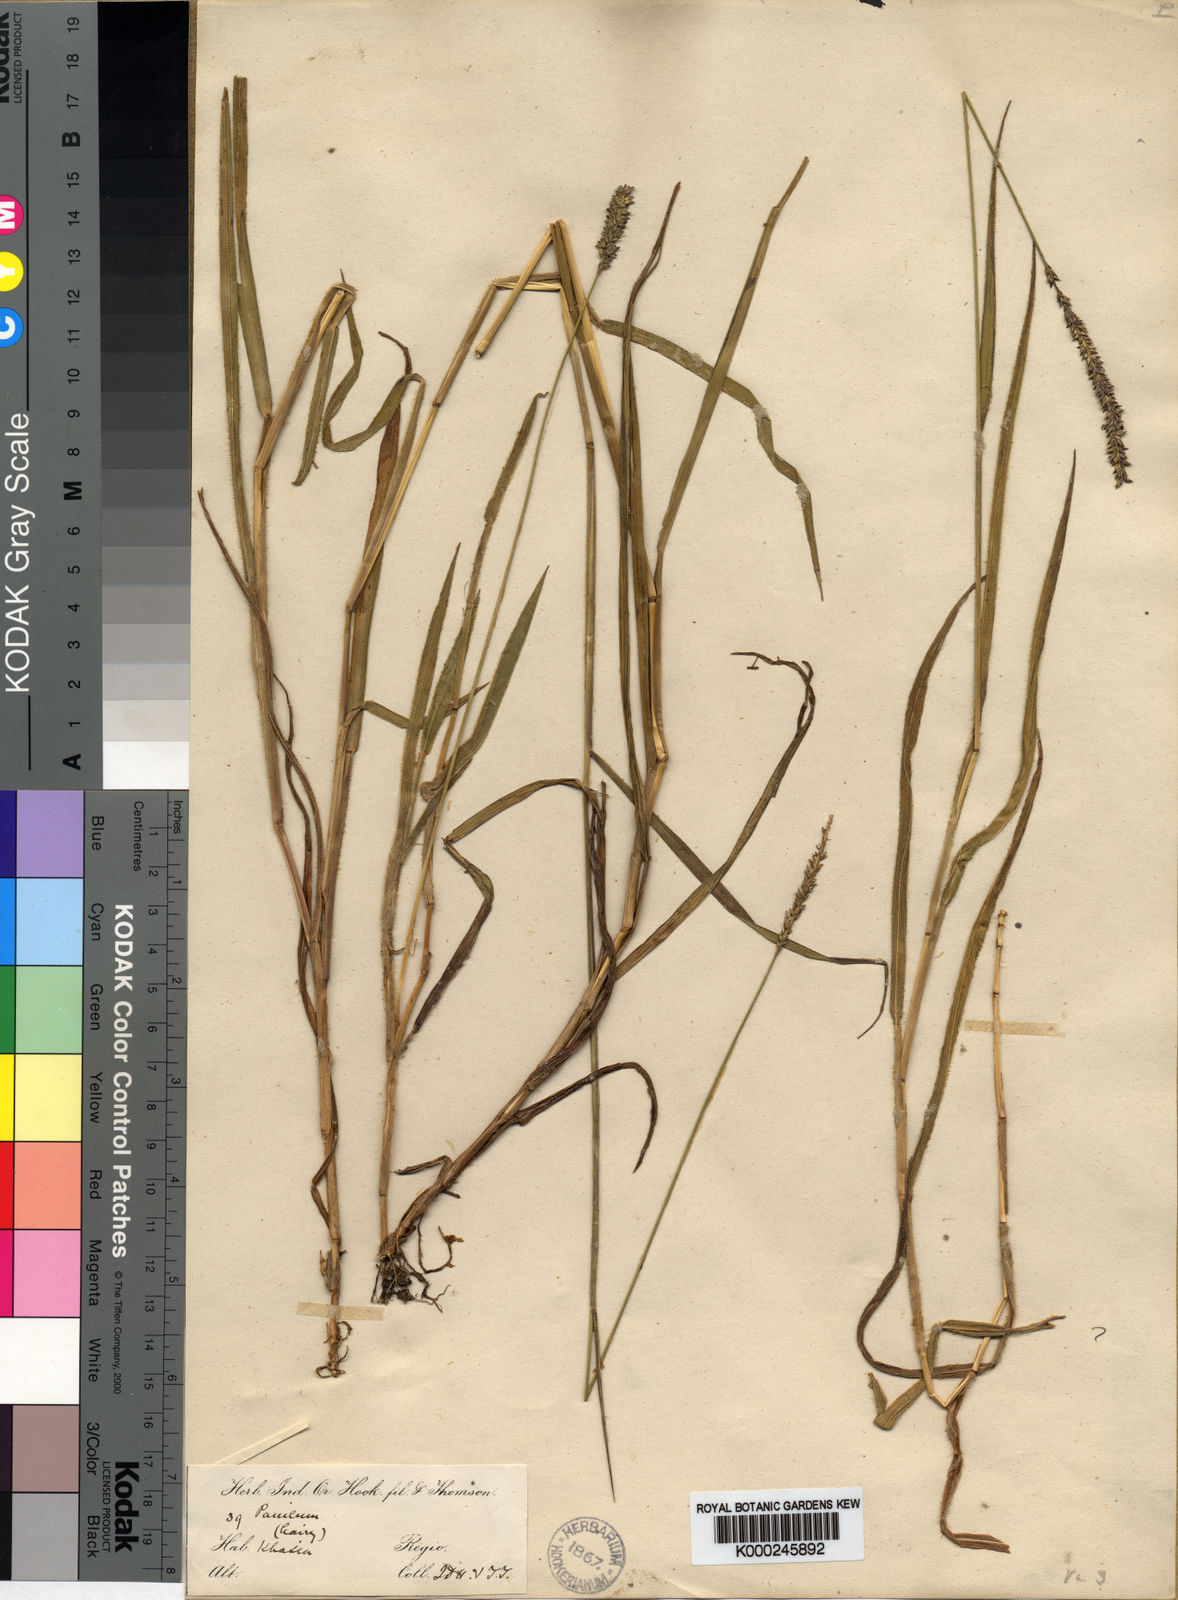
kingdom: Plantae
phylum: Tracheophyta
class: Liliopsida
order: Poales
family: Poaceae
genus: Sacciolepis
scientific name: Sacciolepis indica
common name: Glenwoodgrass
